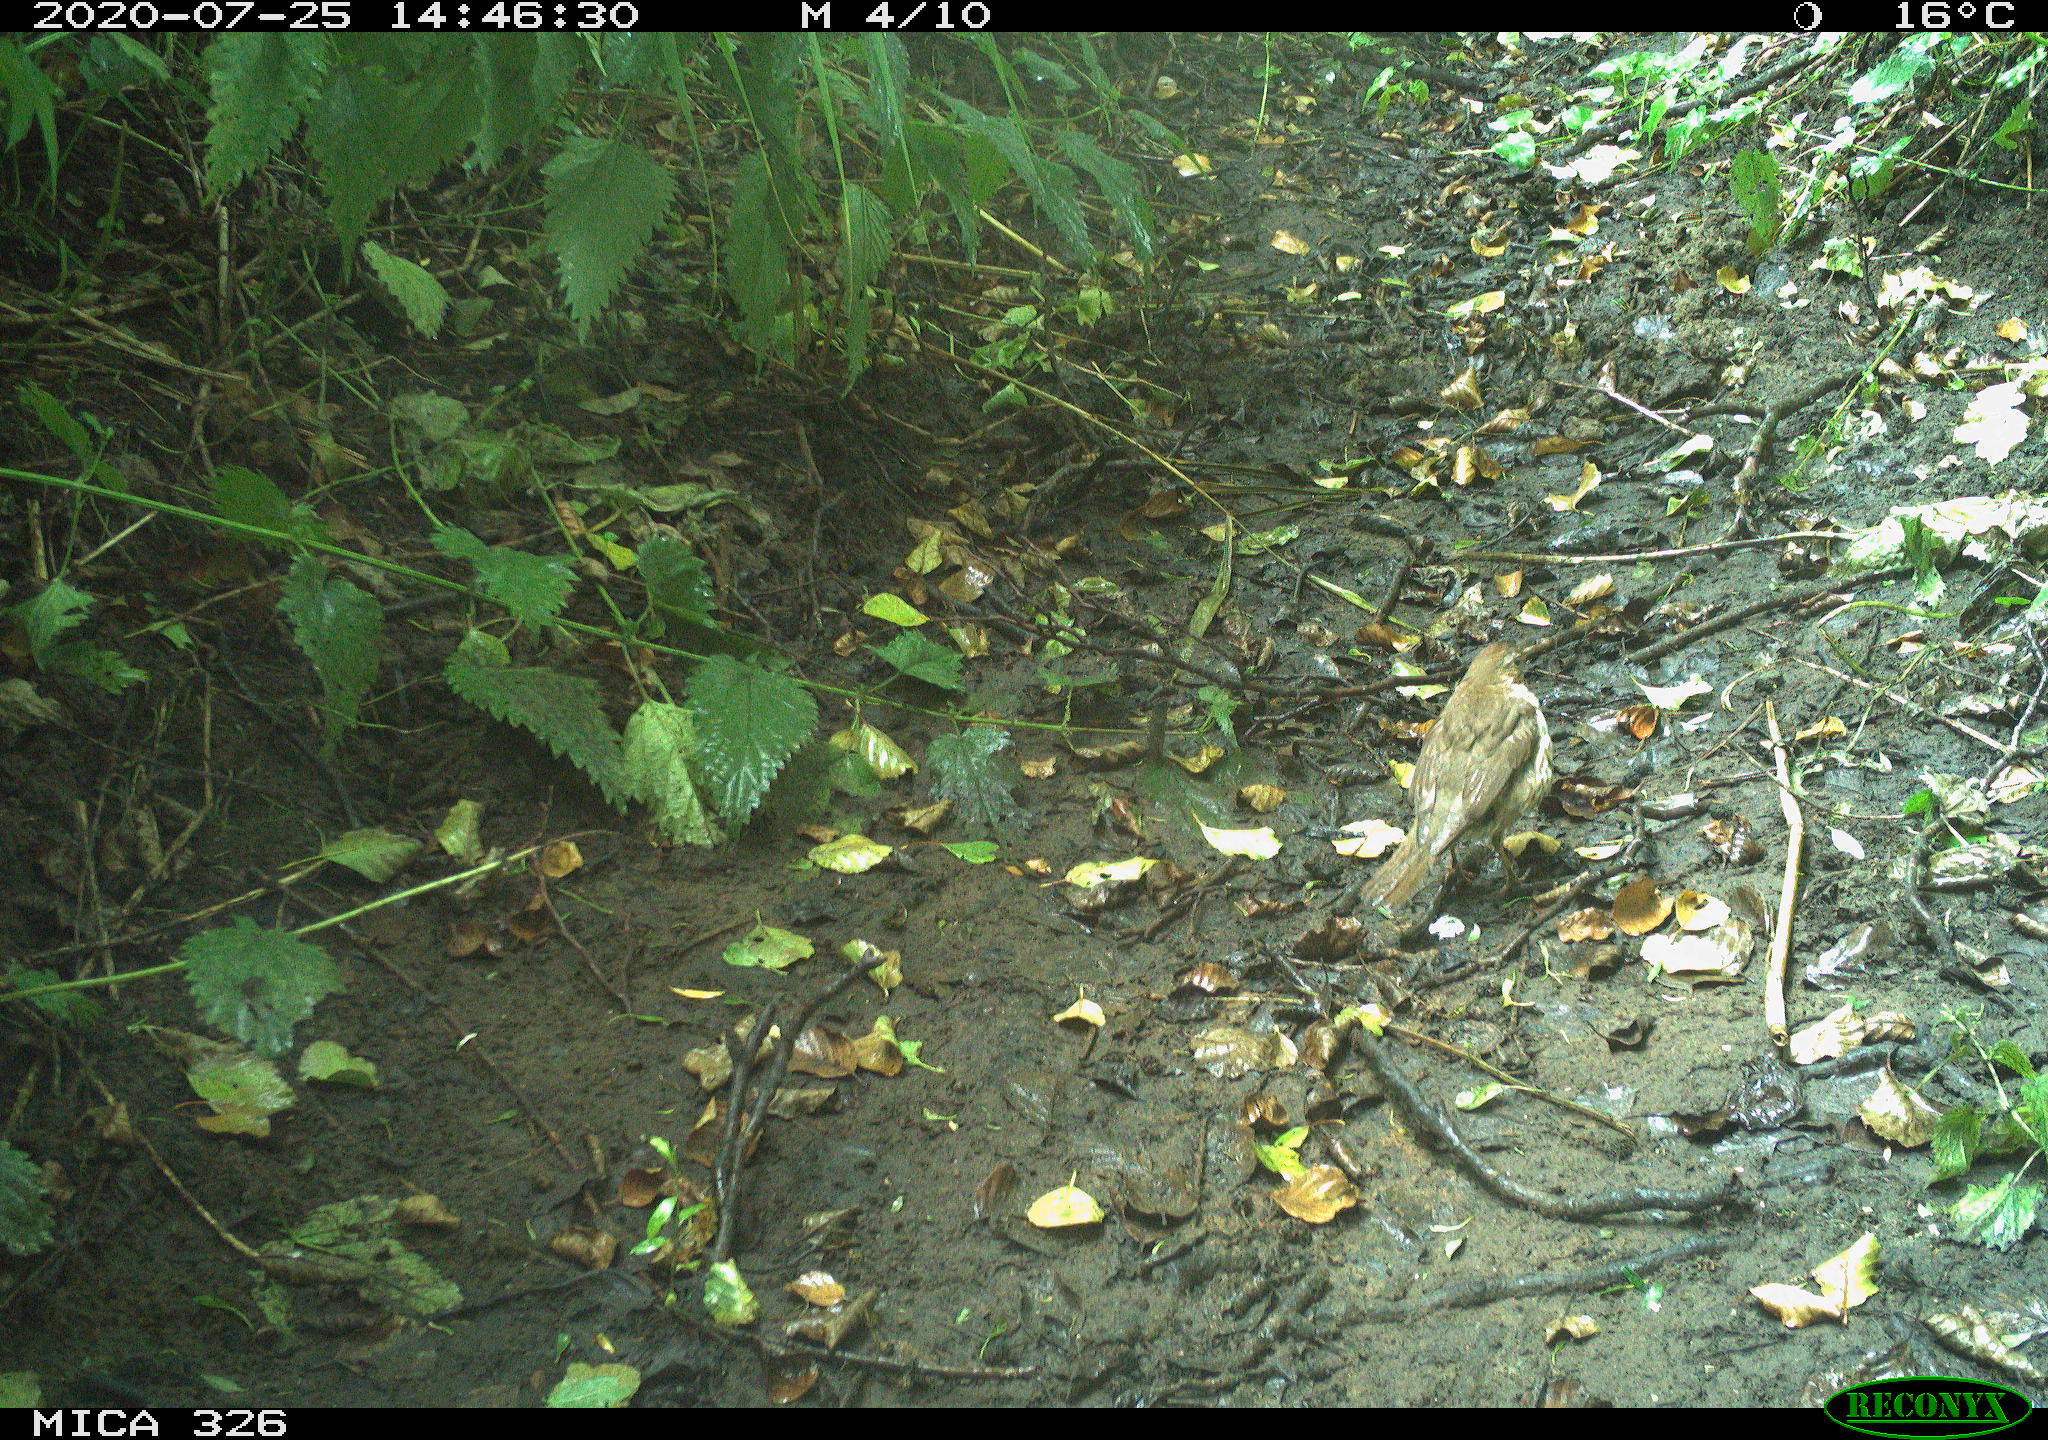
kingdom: Animalia
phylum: Chordata
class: Aves
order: Passeriformes
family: Turdidae
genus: Turdus
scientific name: Turdus philomelos
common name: Song thrush
